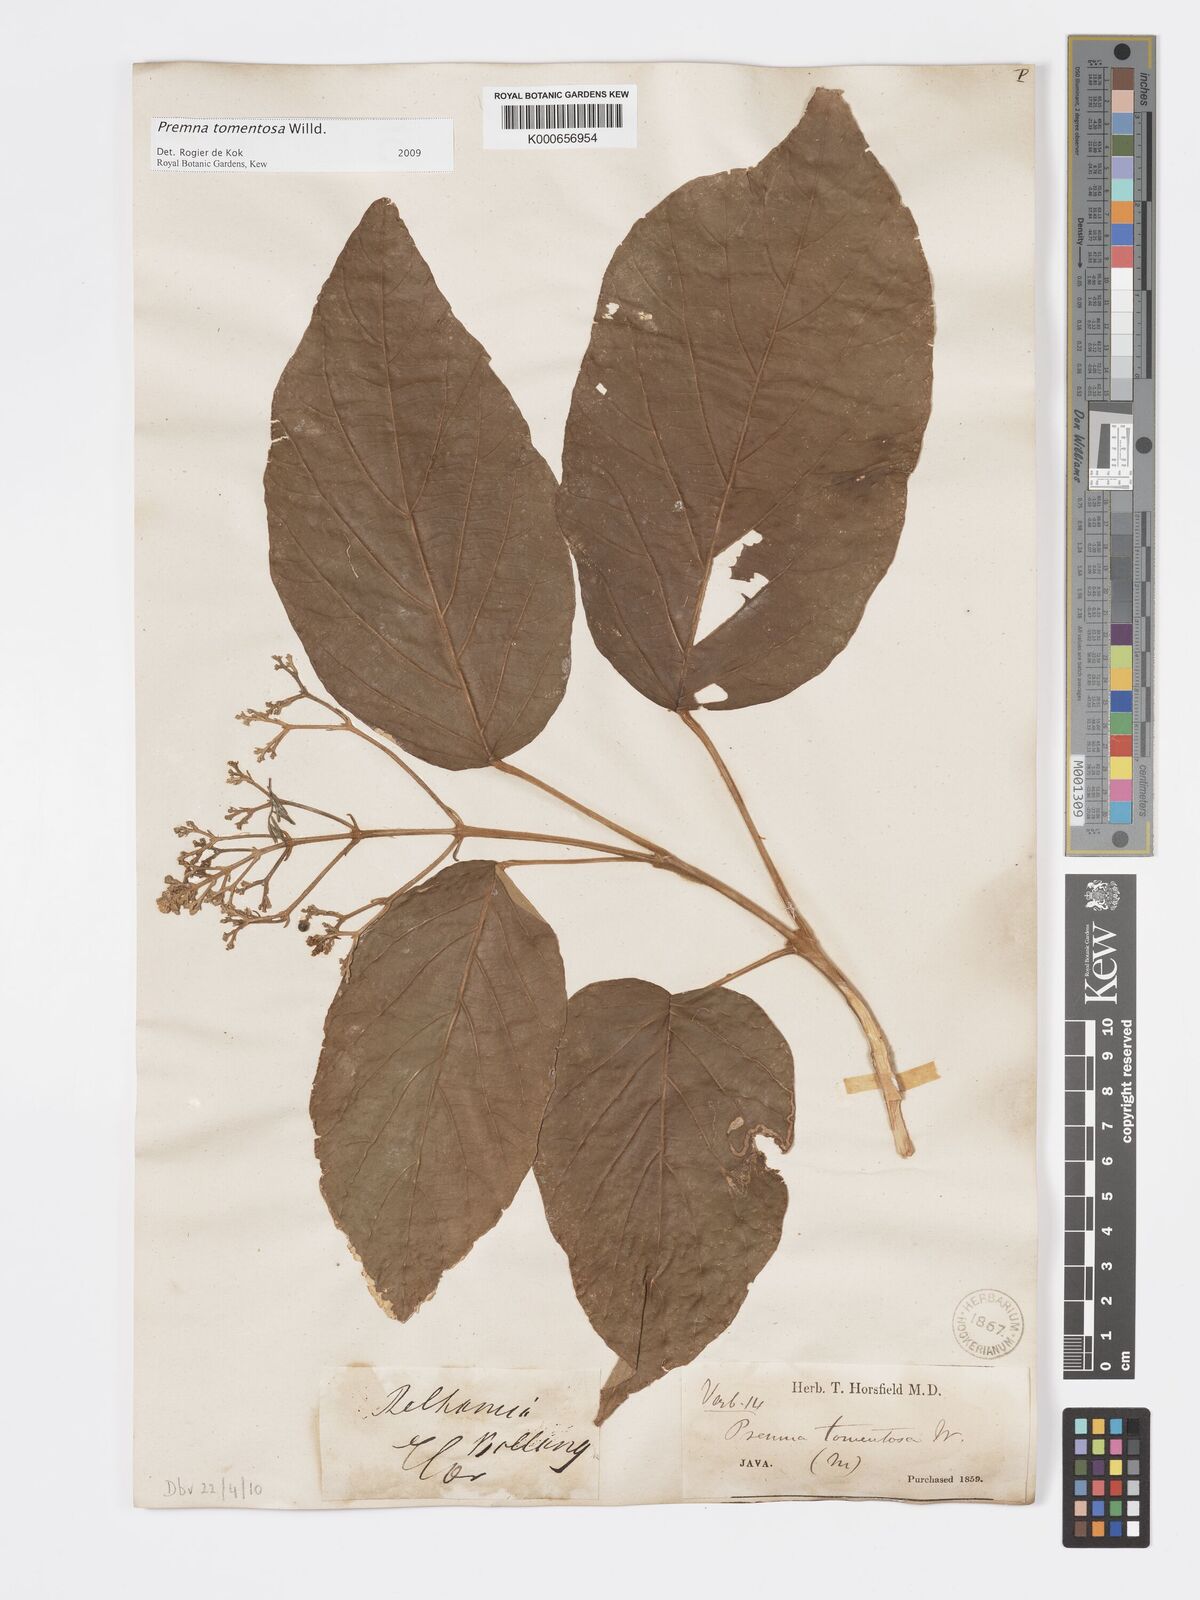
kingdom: Plantae
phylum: Tracheophyta
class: Magnoliopsida
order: Lamiales
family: Lamiaceae
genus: Premna
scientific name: Premna tomentosa
